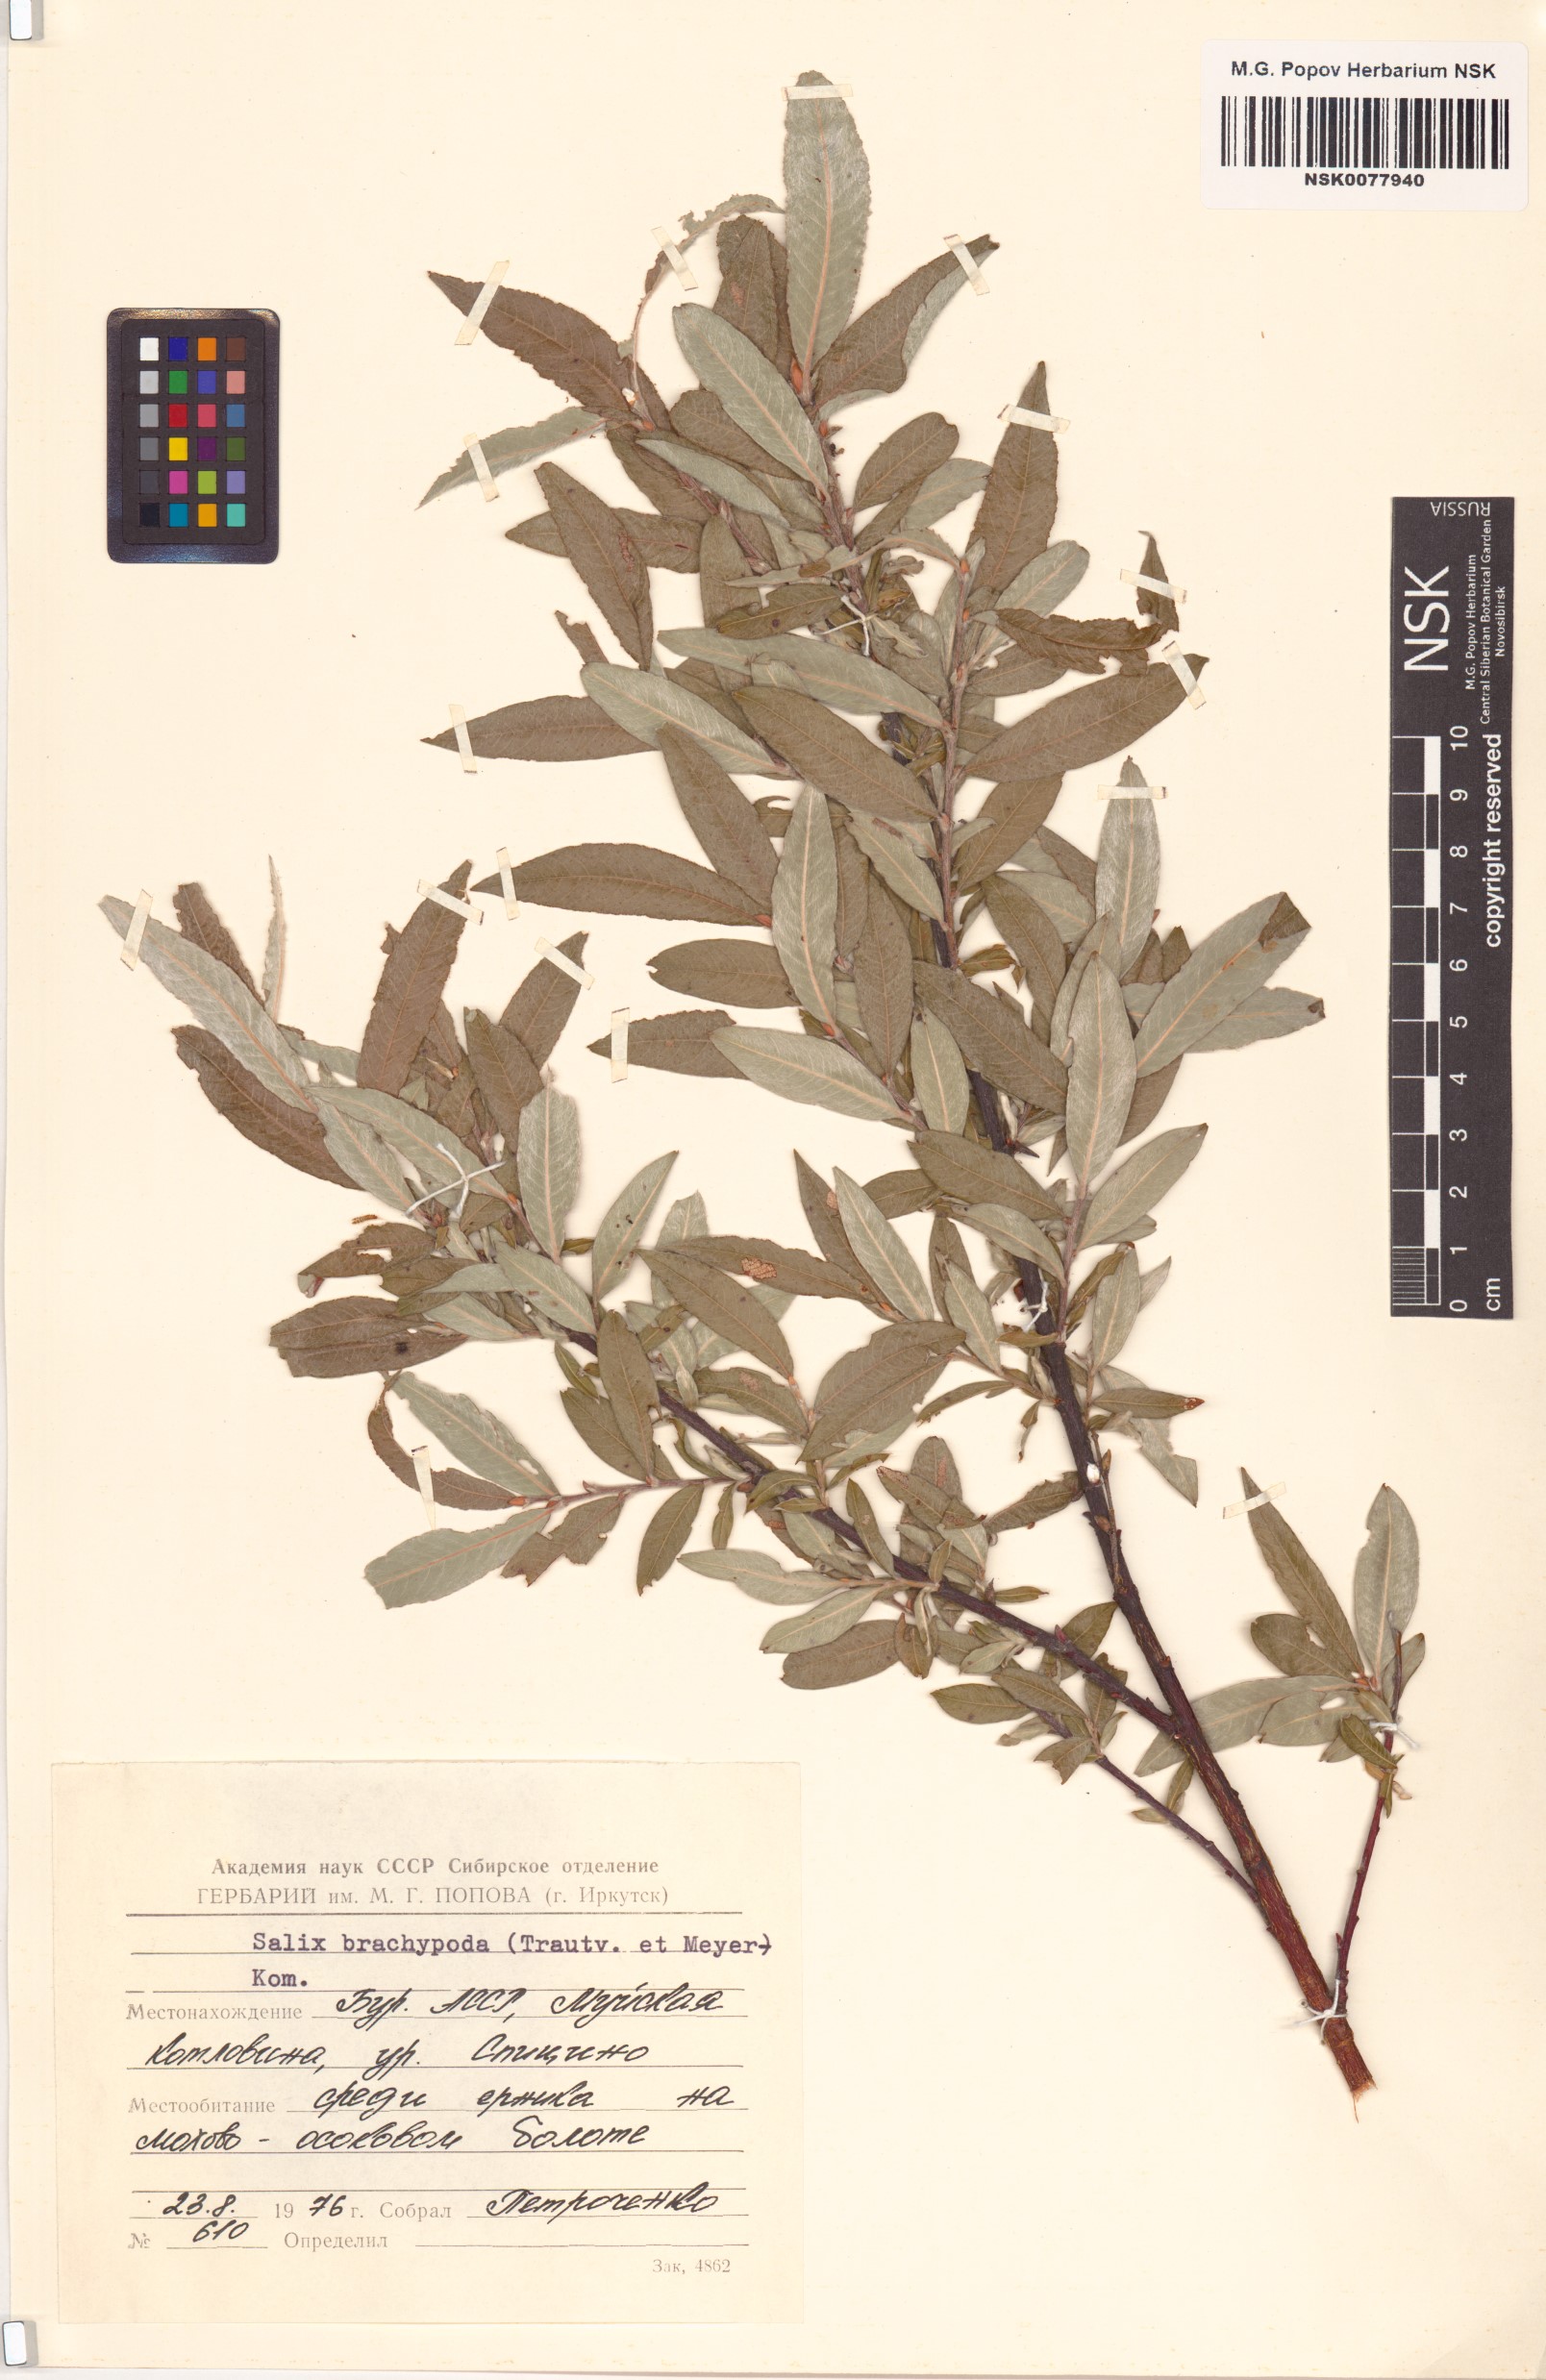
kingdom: Plantae
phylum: Tracheophyta
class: Magnoliopsida
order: Malpighiales
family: Salicaceae
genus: Salix
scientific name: Salix brachypoda
